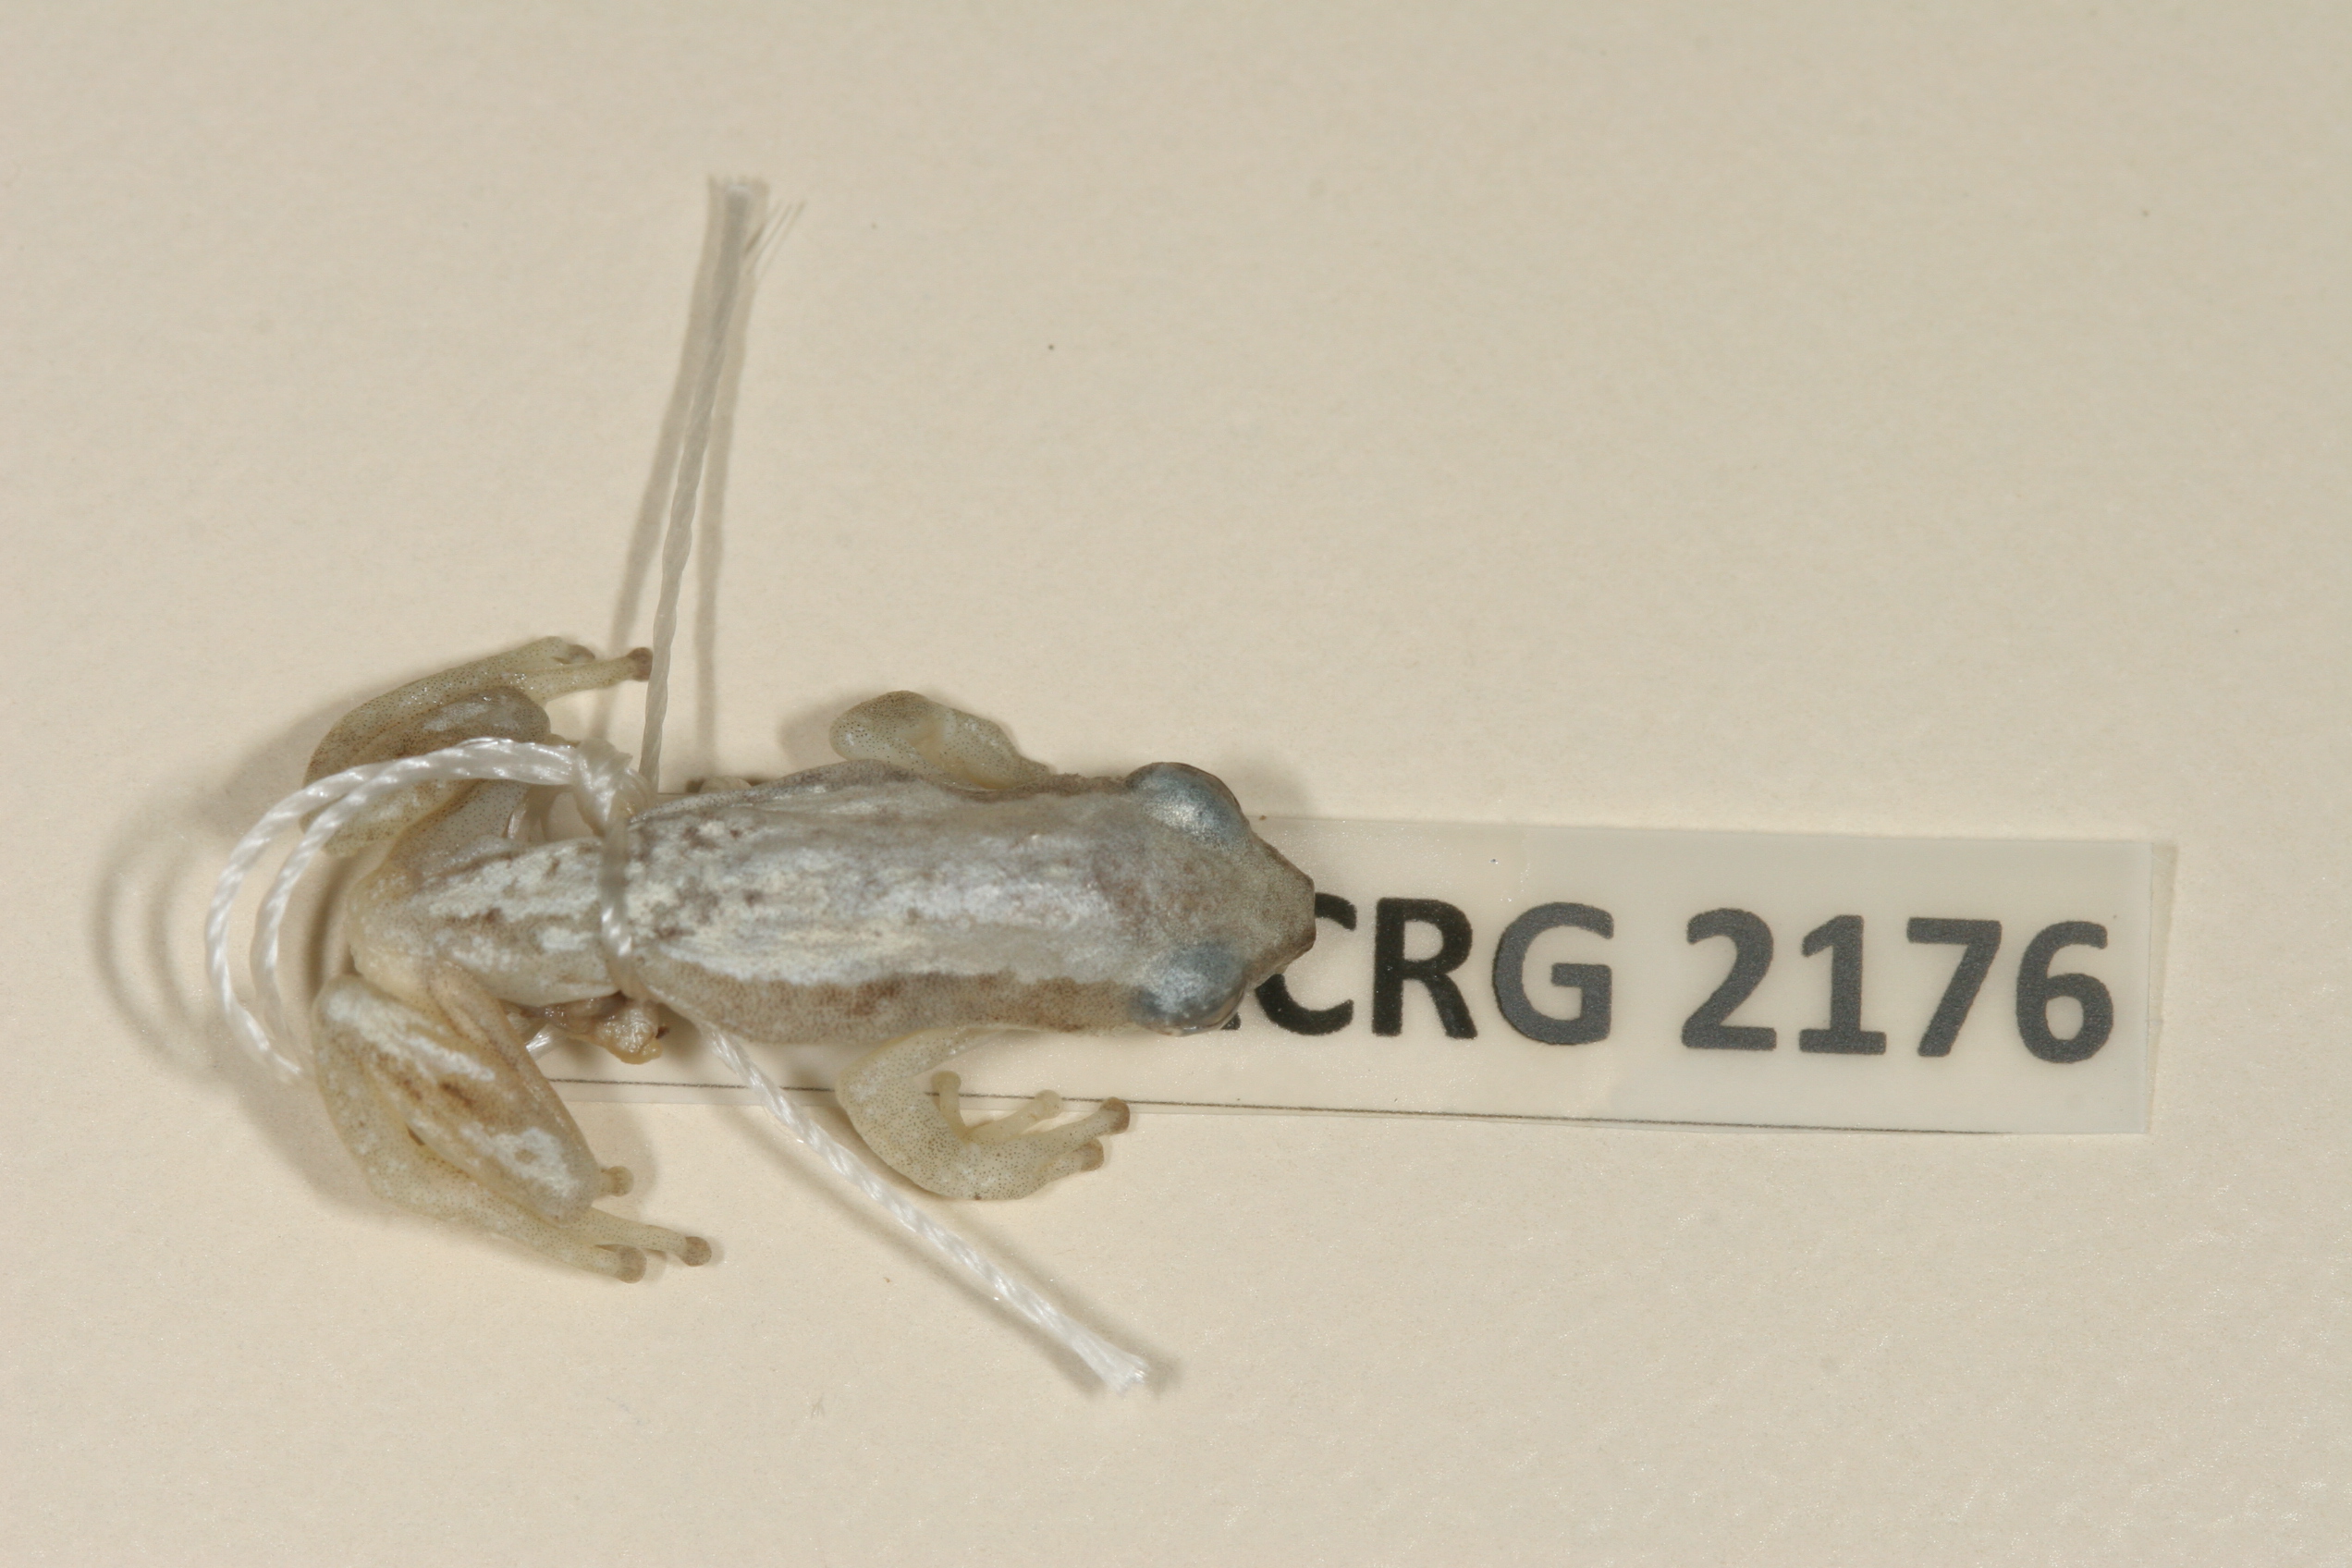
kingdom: Animalia
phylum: Chordata
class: Amphibia
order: Anura
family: Hyperoliidae
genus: Afrixalus
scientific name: Afrixalus delicatus
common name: Delicate leaf-folding frog
